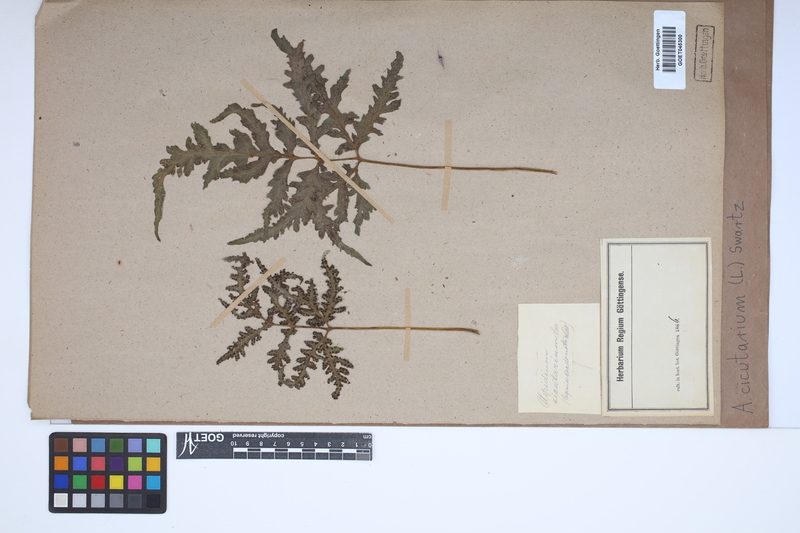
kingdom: Plantae
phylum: Tracheophyta
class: Polypodiopsida
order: Polypodiales
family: Tectariaceae
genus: Tectaria
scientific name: Tectaria cicutaria
